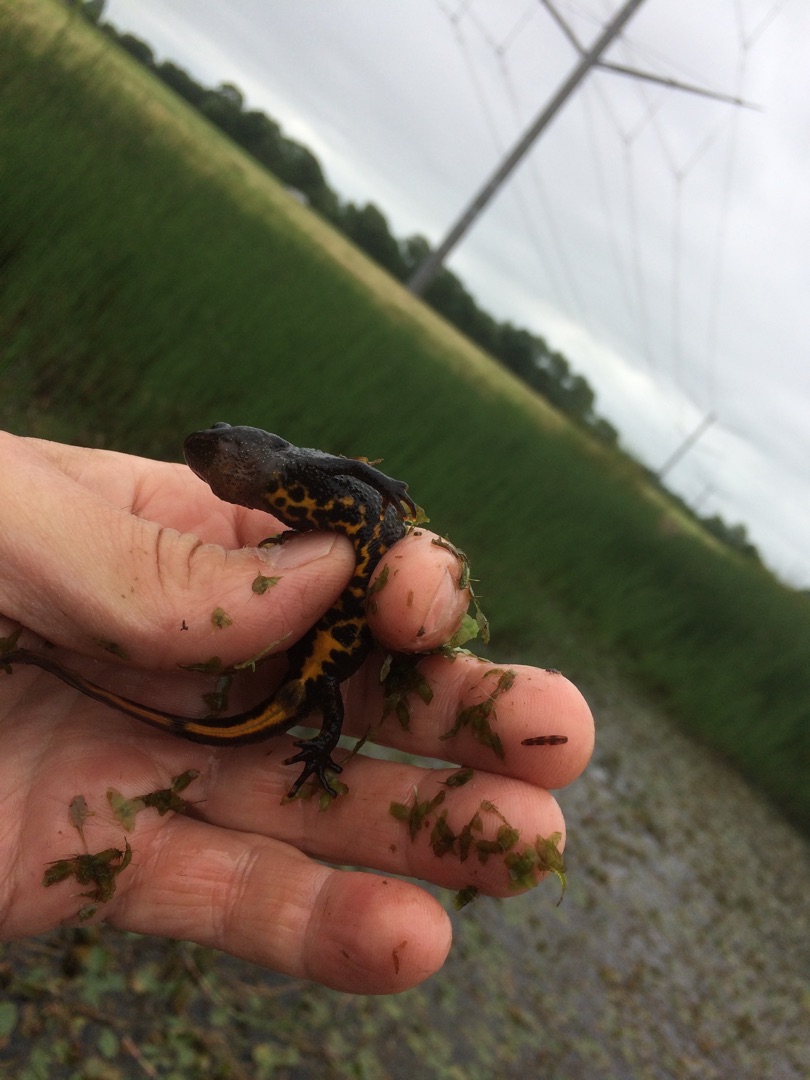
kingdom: Animalia
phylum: Chordata
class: Amphibia
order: Caudata
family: Salamandridae
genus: Triturus
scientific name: Triturus cristatus
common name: Stor vandsalamander
